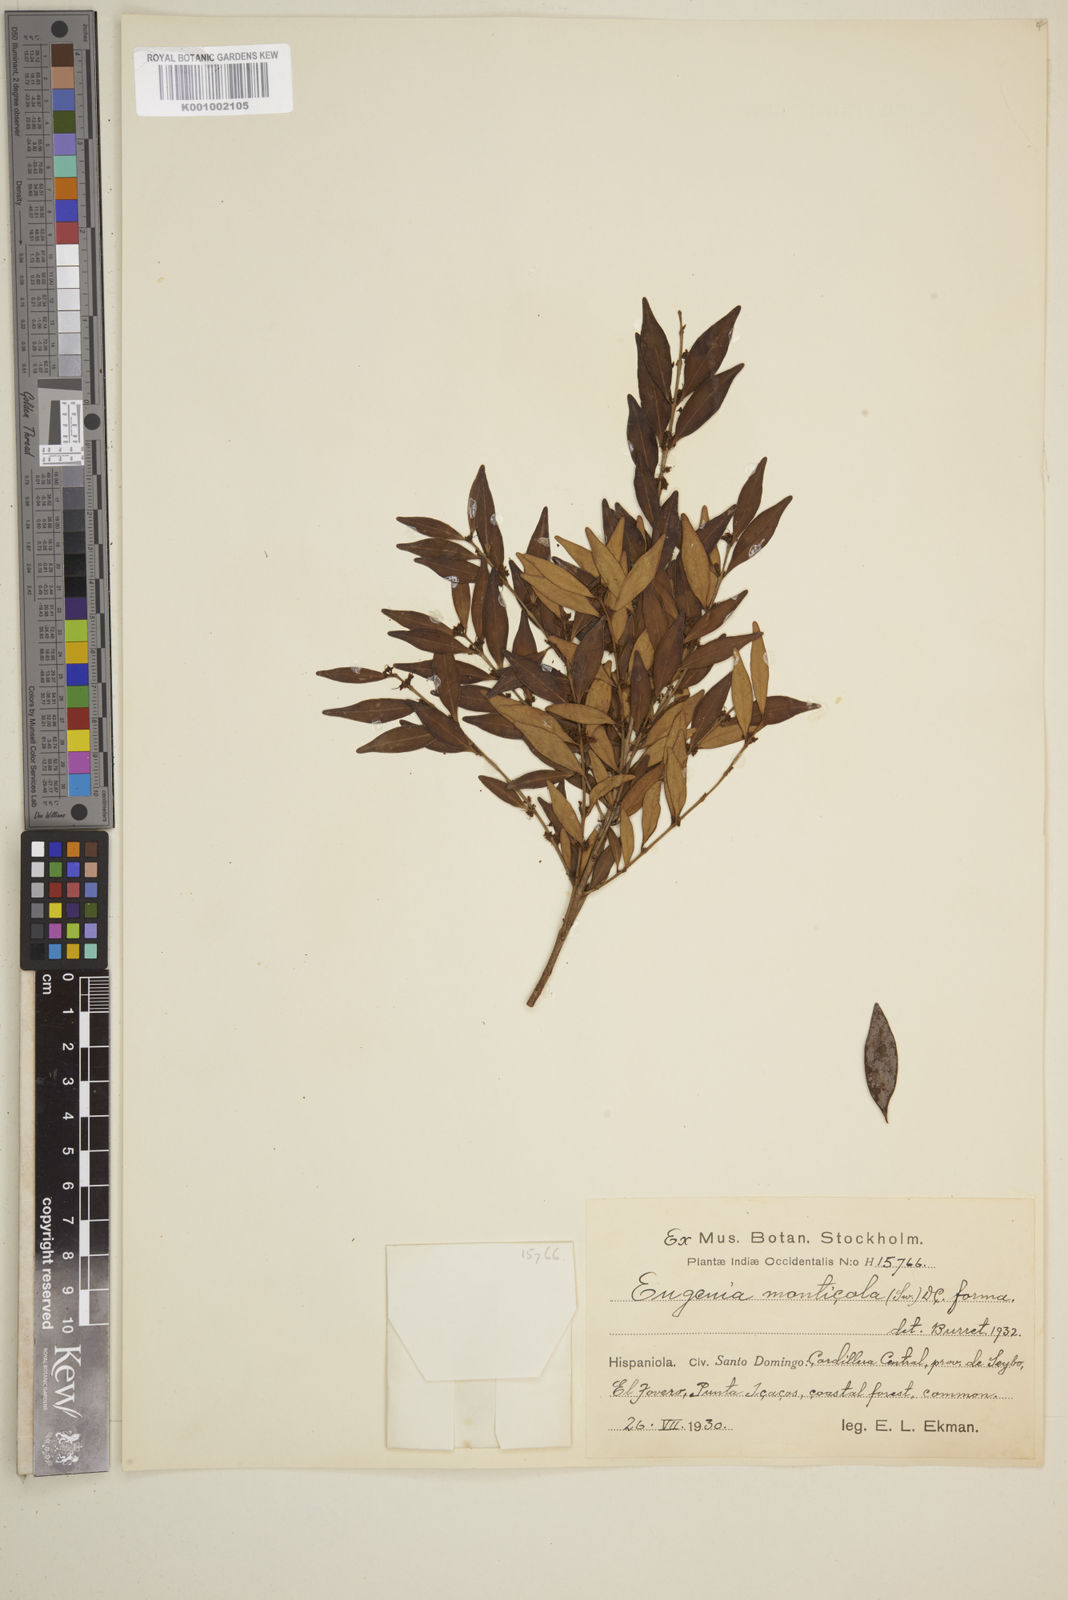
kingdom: Plantae
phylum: Tracheophyta
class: Magnoliopsida
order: Myrtales
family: Myrtaceae
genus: Eugenia
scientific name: Eugenia monticola
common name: Birds berry
